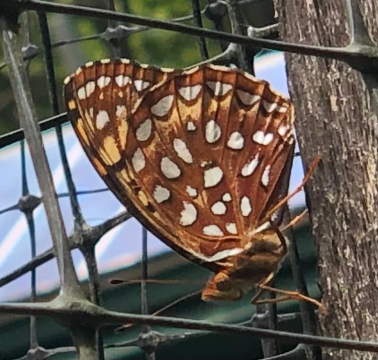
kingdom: Animalia
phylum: Arthropoda
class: Insecta
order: Lepidoptera
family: Nymphalidae
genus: Speyeria
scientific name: Speyeria aphrodite
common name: Aphrodite Fritillary
